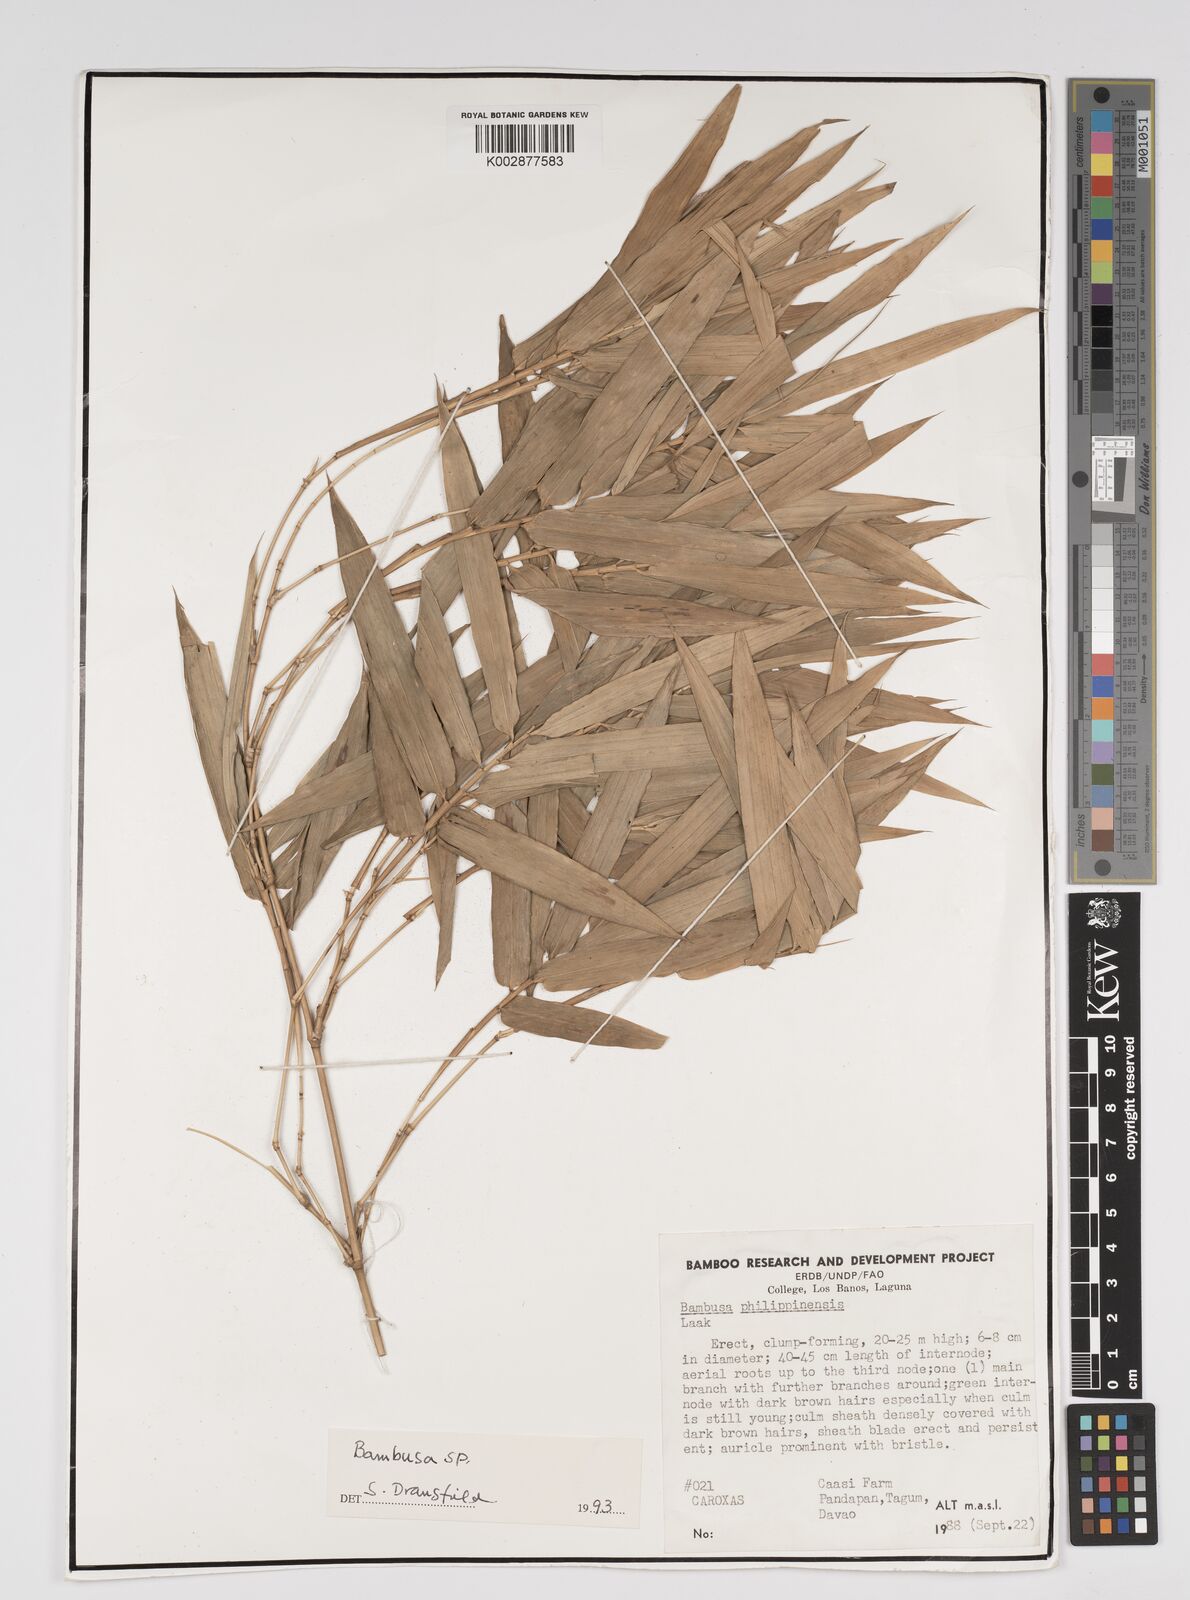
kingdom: Plantae
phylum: Tracheophyta
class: Liliopsida
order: Poales
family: Poaceae
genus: Bambusa
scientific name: Bambusa
